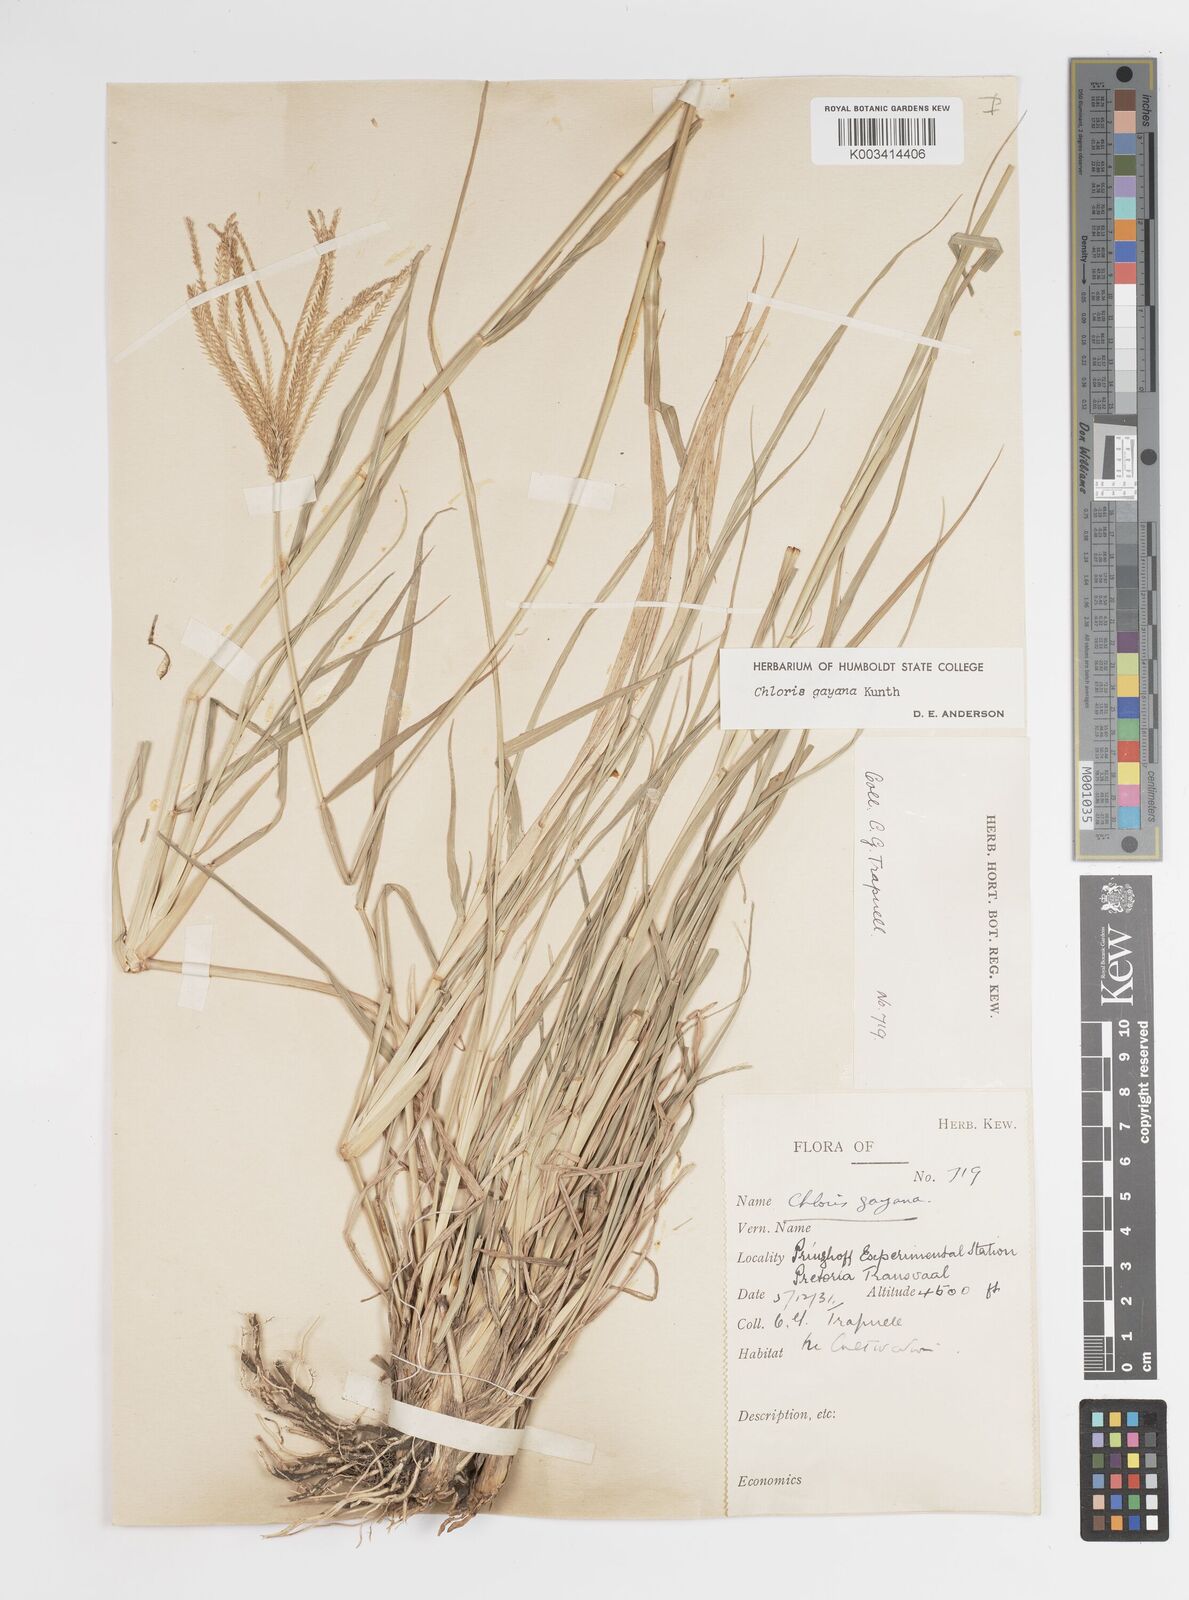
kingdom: Plantae
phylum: Tracheophyta
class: Liliopsida
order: Poales
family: Poaceae
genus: Chloris
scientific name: Chloris gayana
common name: Rhodes grass
